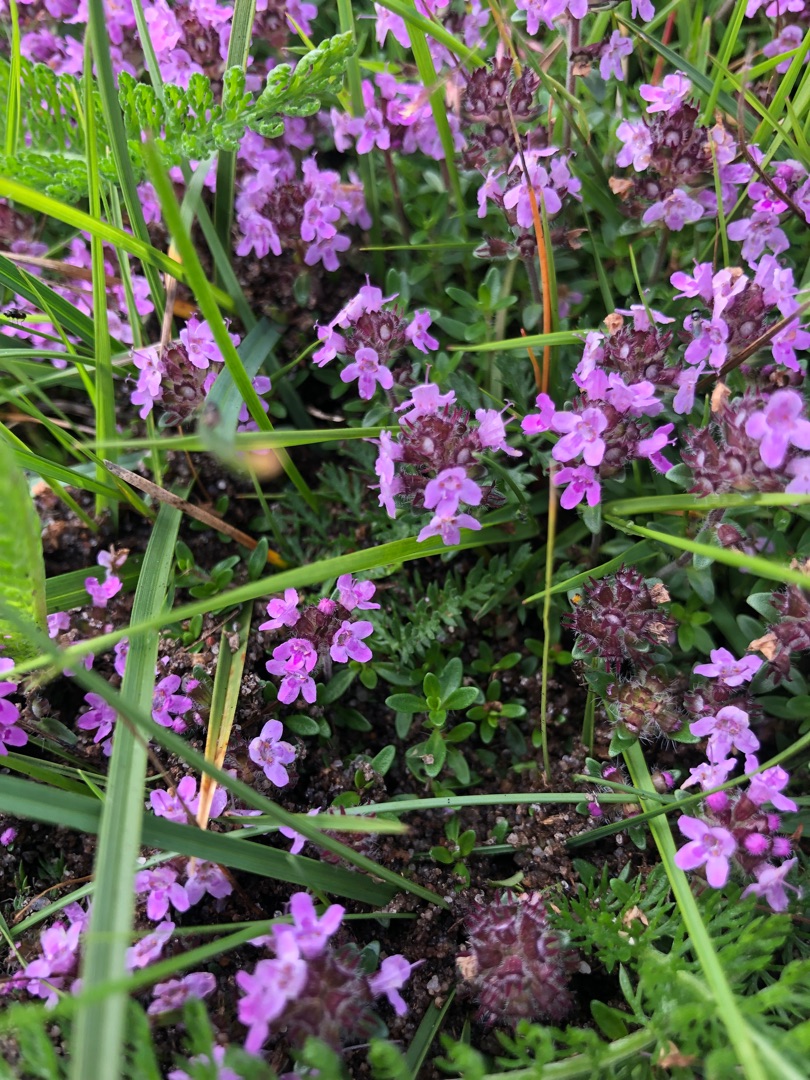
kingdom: Plantae
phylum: Tracheophyta
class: Magnoliopsida
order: Lamiales
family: Lamiaceae
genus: Thymus
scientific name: Thymus serpyllum
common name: Smalbladet timian
